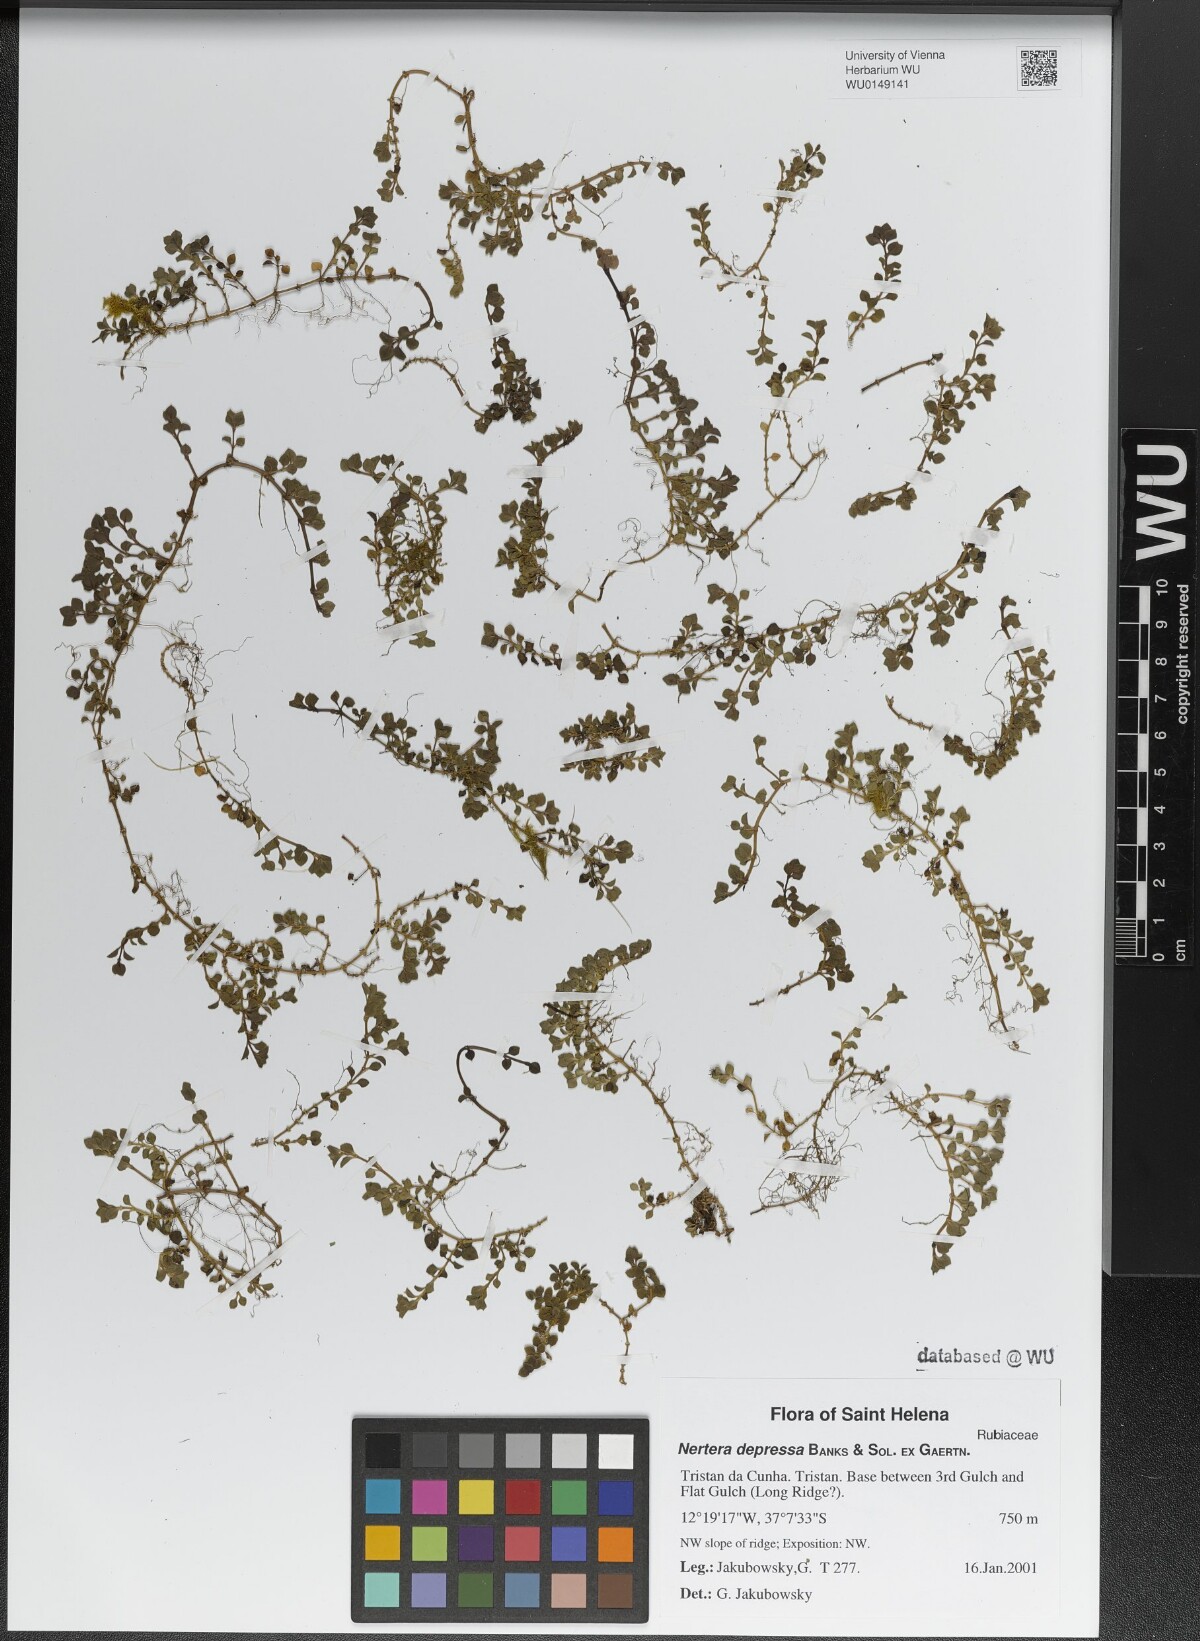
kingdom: Plantae
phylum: Tracheophyta
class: Magnoliopsida
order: Gentianales
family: Rubiaceae
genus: Nertera
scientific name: Nertera granadensis
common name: Beadplant
